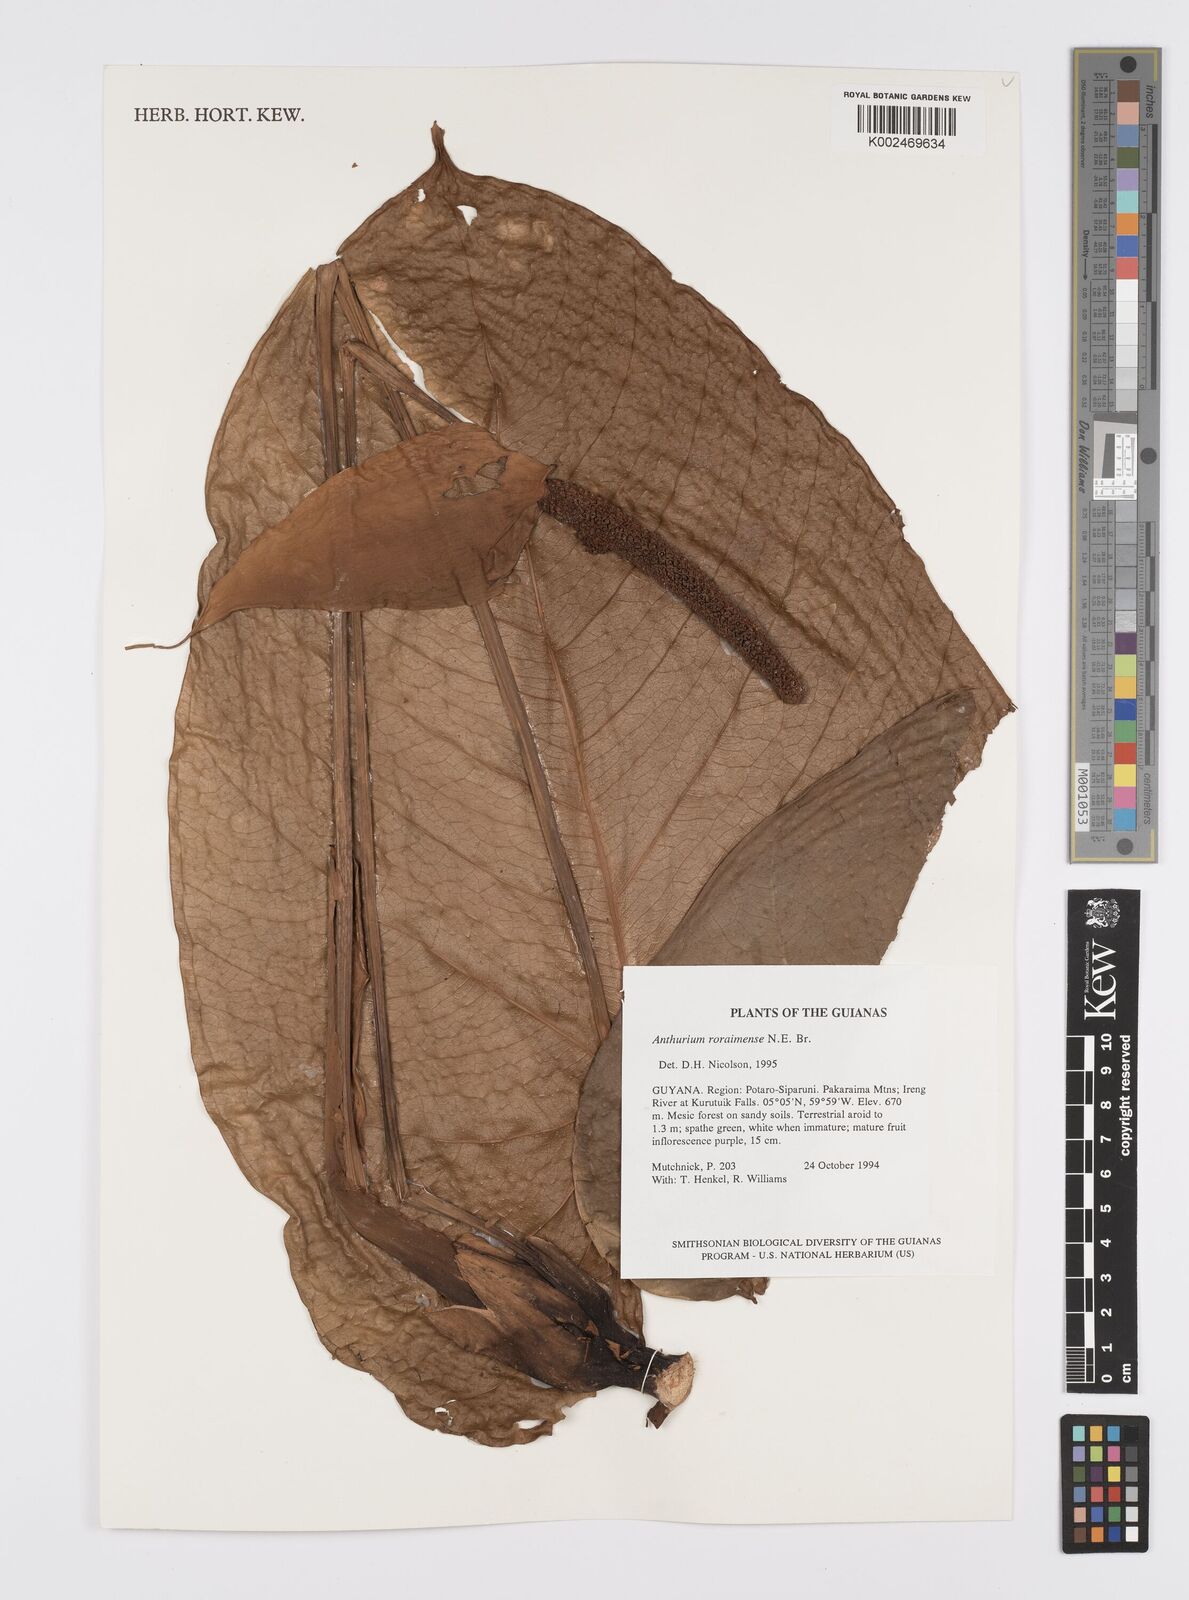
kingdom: Plantae
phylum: Tracheophyta
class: Liliopsida
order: Alismatales
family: Araceae
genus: Anthurium
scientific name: Anthurium roraimense
